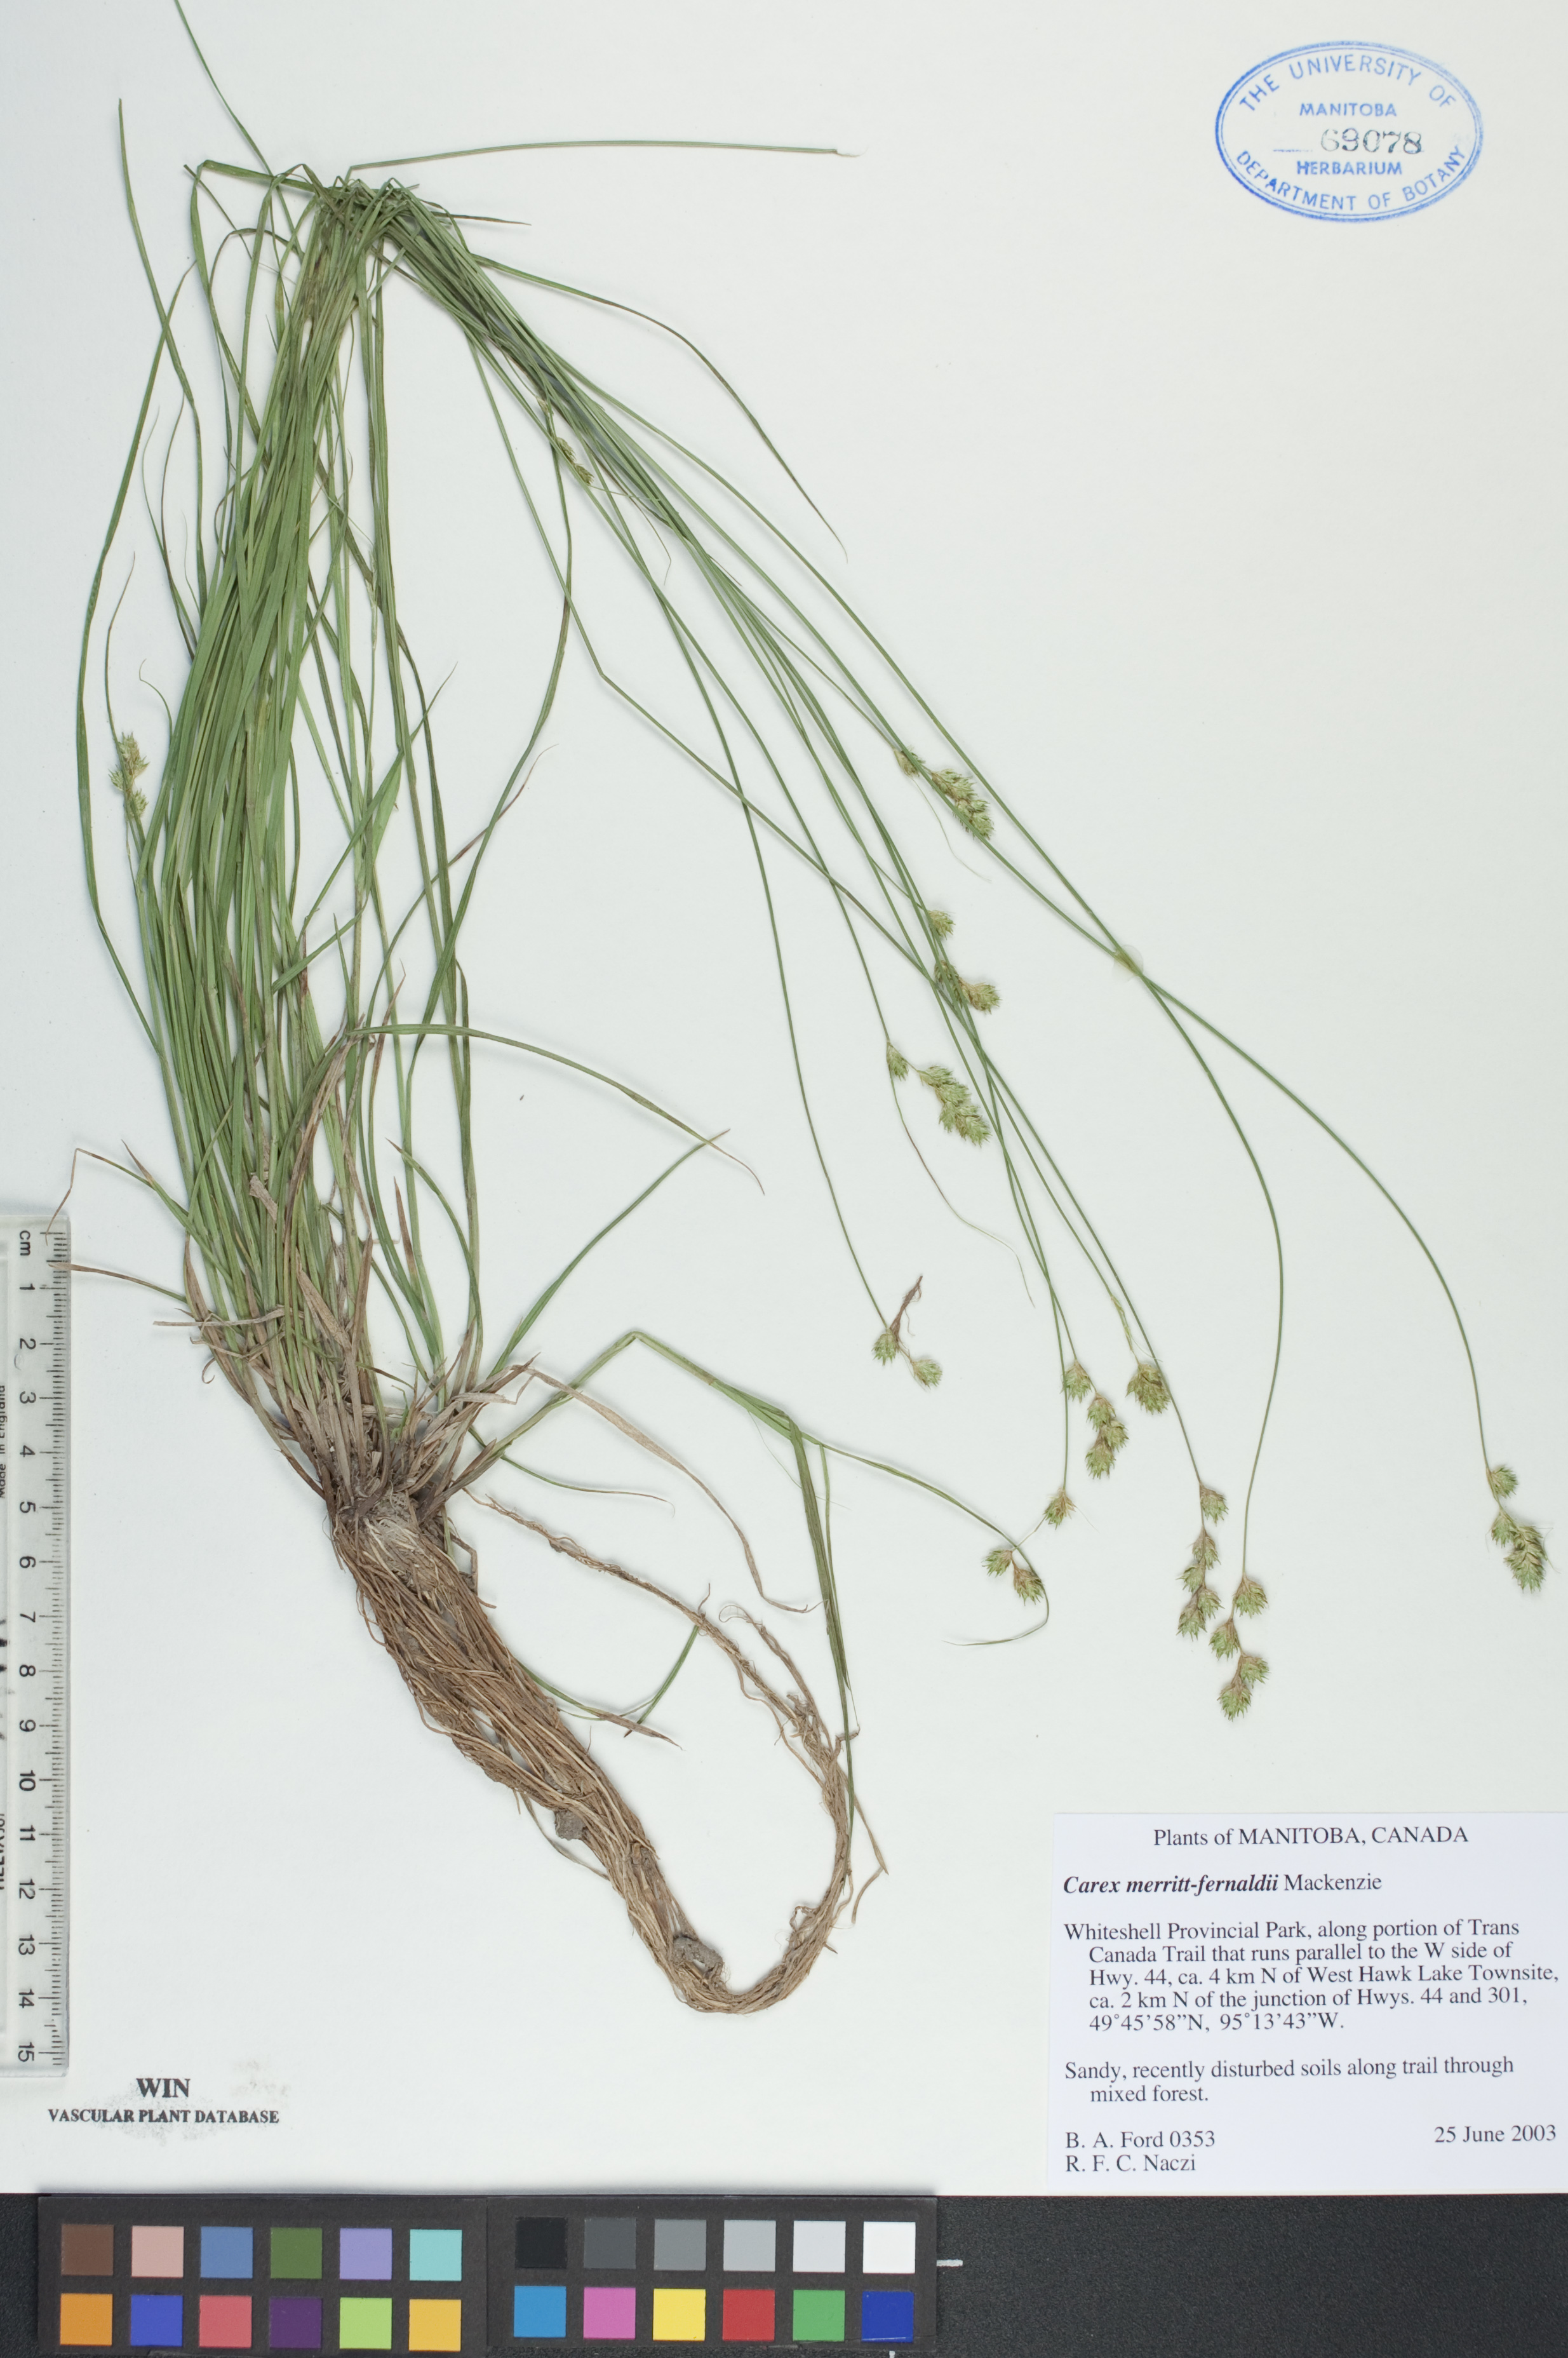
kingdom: Plantae
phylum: Tracheophyta
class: Liliopsida
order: Poales
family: Cyperaceae
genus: Carex
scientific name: Carex merritt-fernaldii
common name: Fernald's oval sedge
